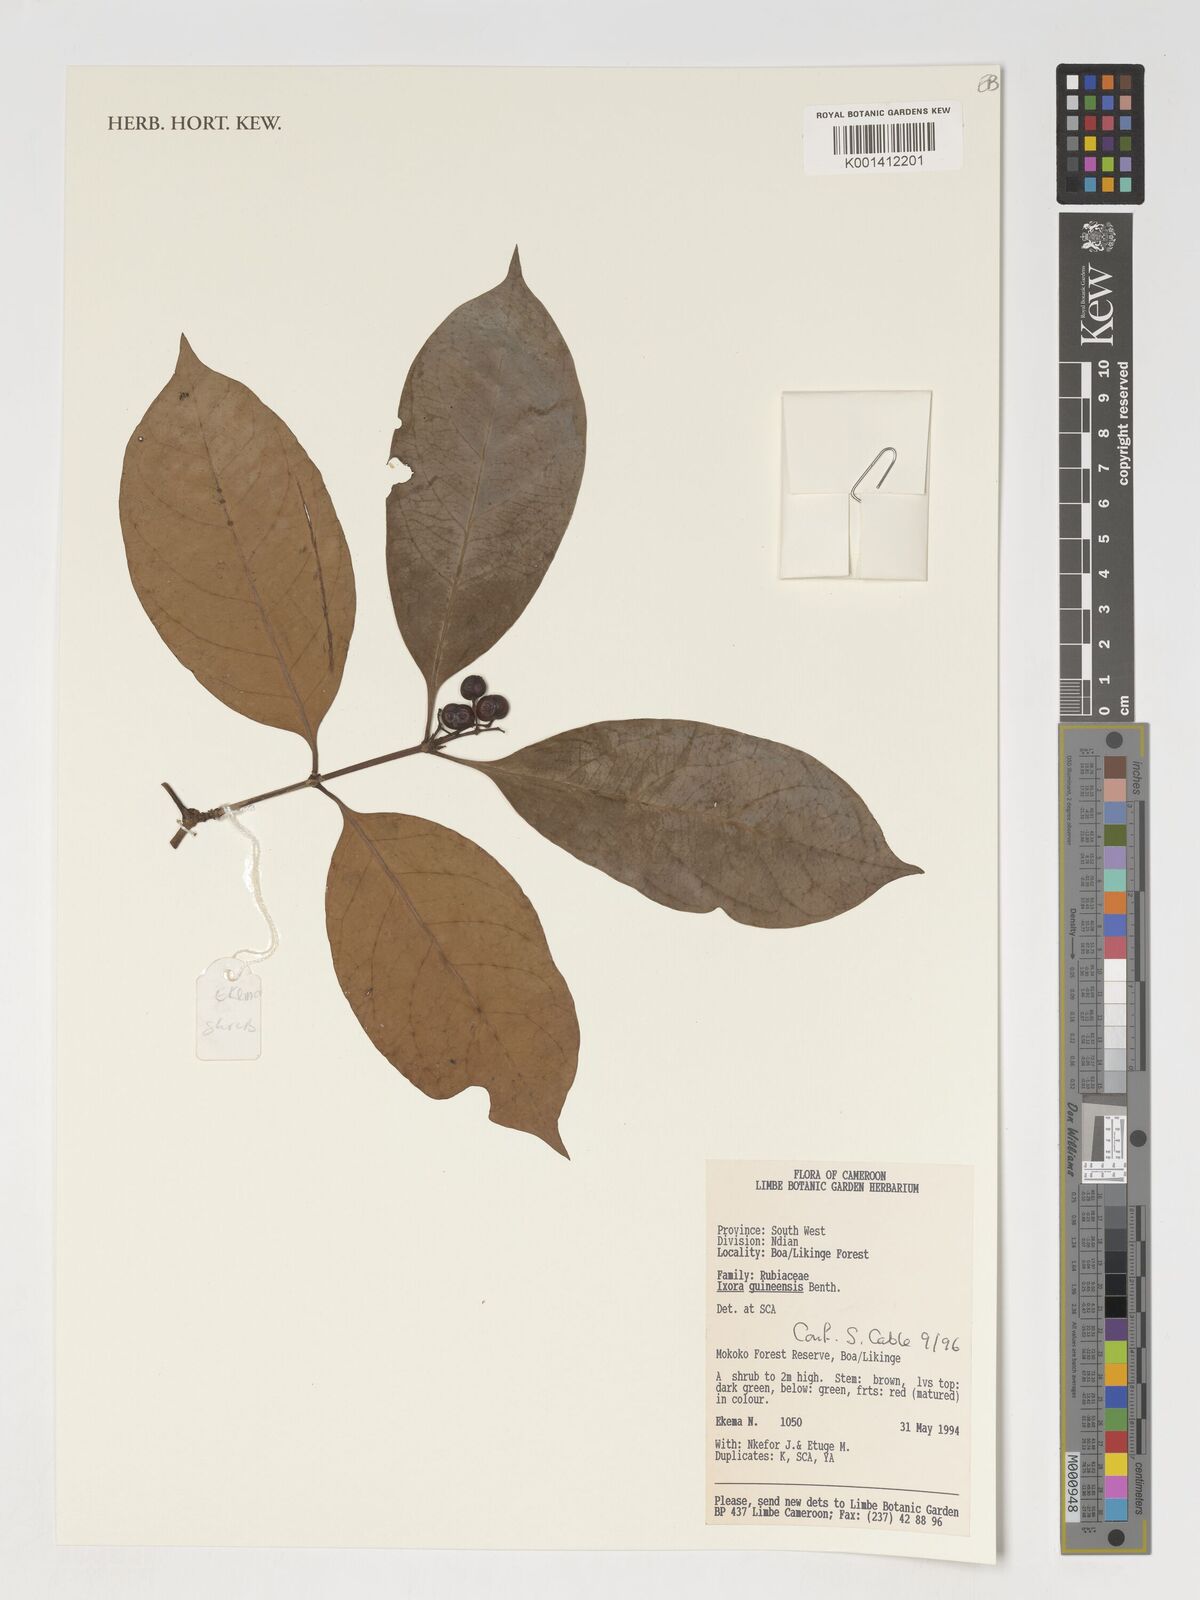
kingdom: Plantae
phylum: Tracheophyta
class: Magnoliopsida
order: Gentianales
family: Rubiaceae
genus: Ixora
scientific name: Ixora guineensis
